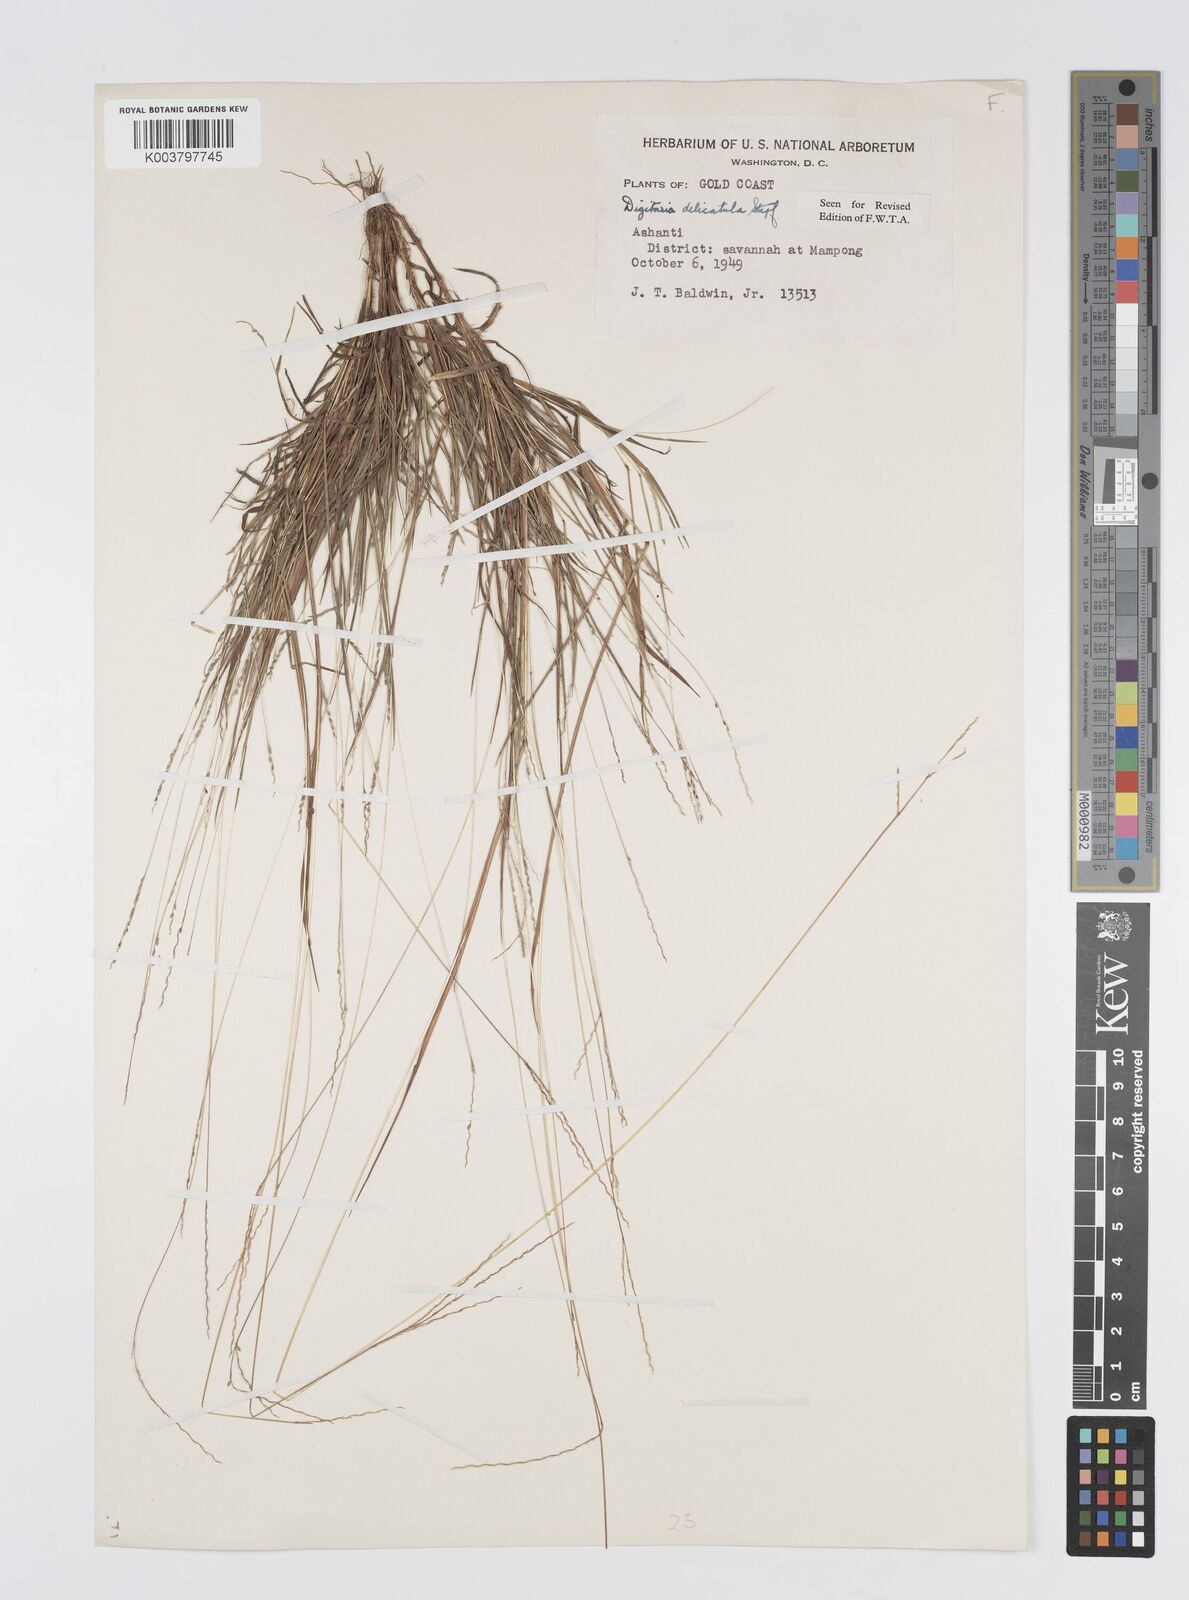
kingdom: Plantae
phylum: Tracheophyta
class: Liliopsida
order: Poales
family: Poaceae
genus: Digitaria
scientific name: Digitaria delicatula
